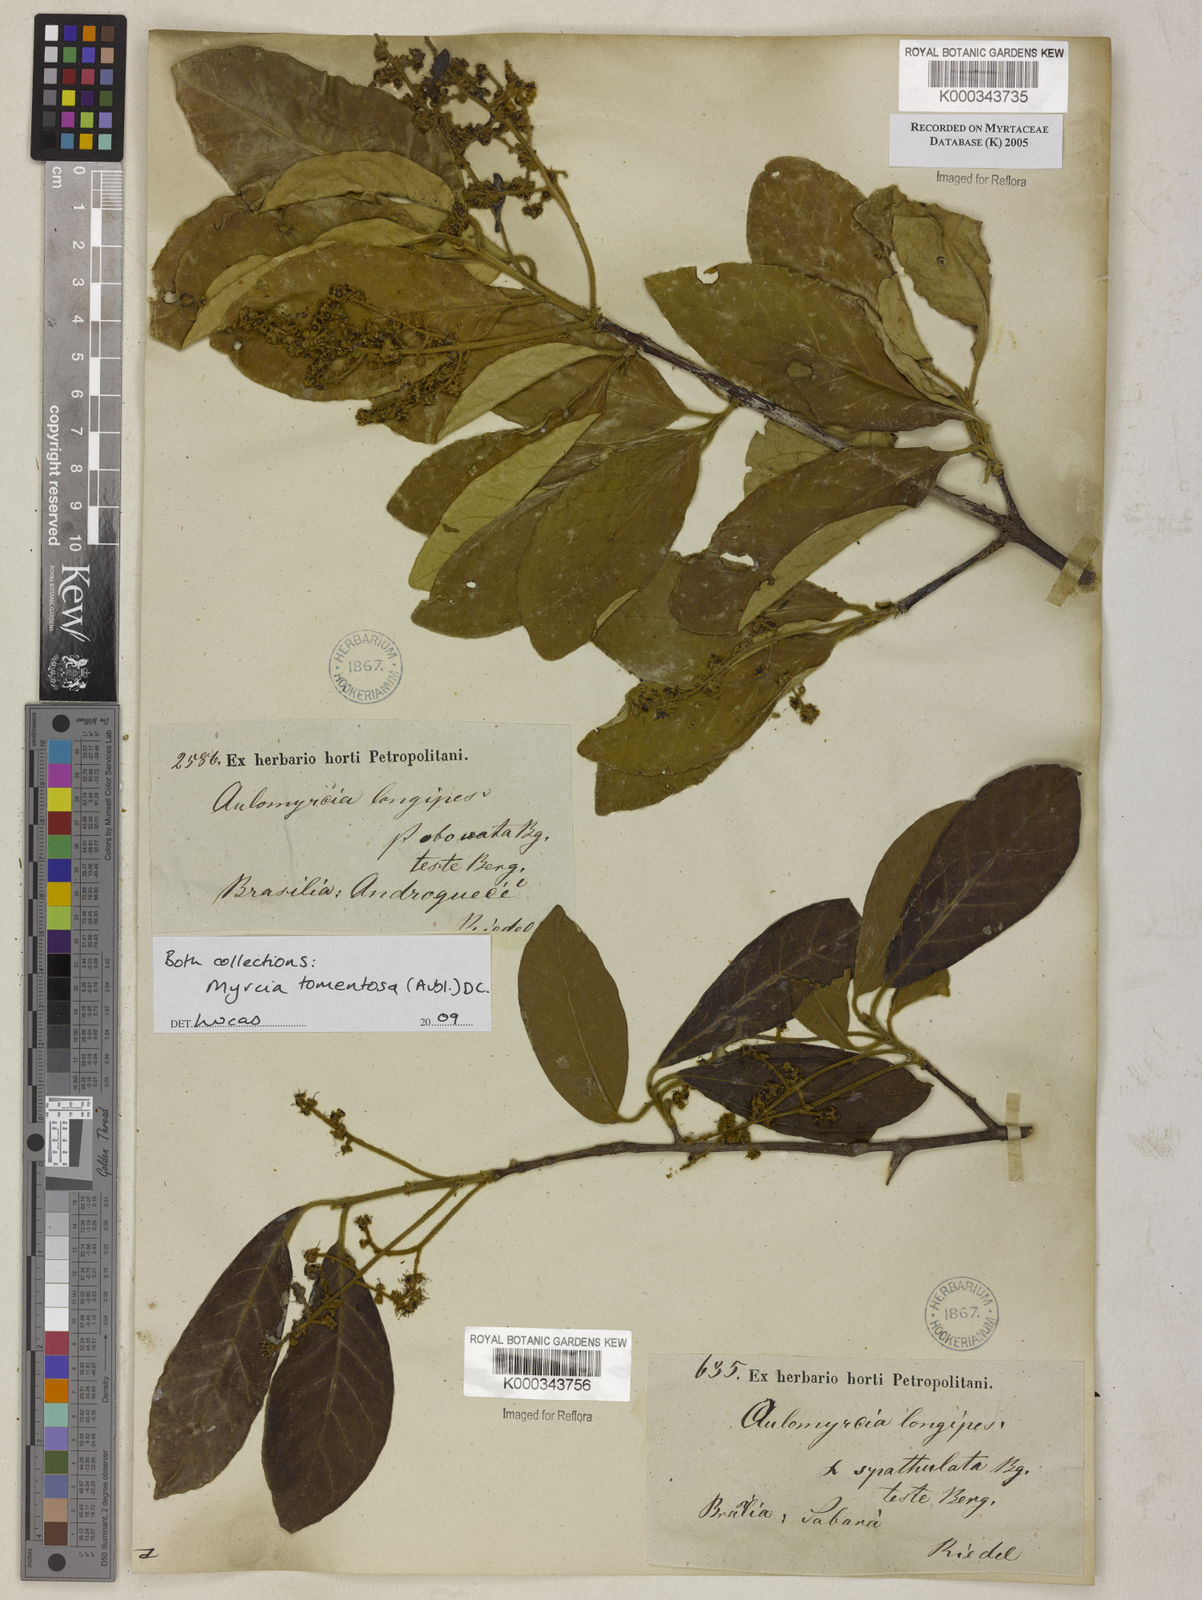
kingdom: Plantae
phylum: Tracheophyta
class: Magnoliopsida
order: Myrtales
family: Myrtaceae
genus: Myrcia
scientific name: Myrcia tomentosa
